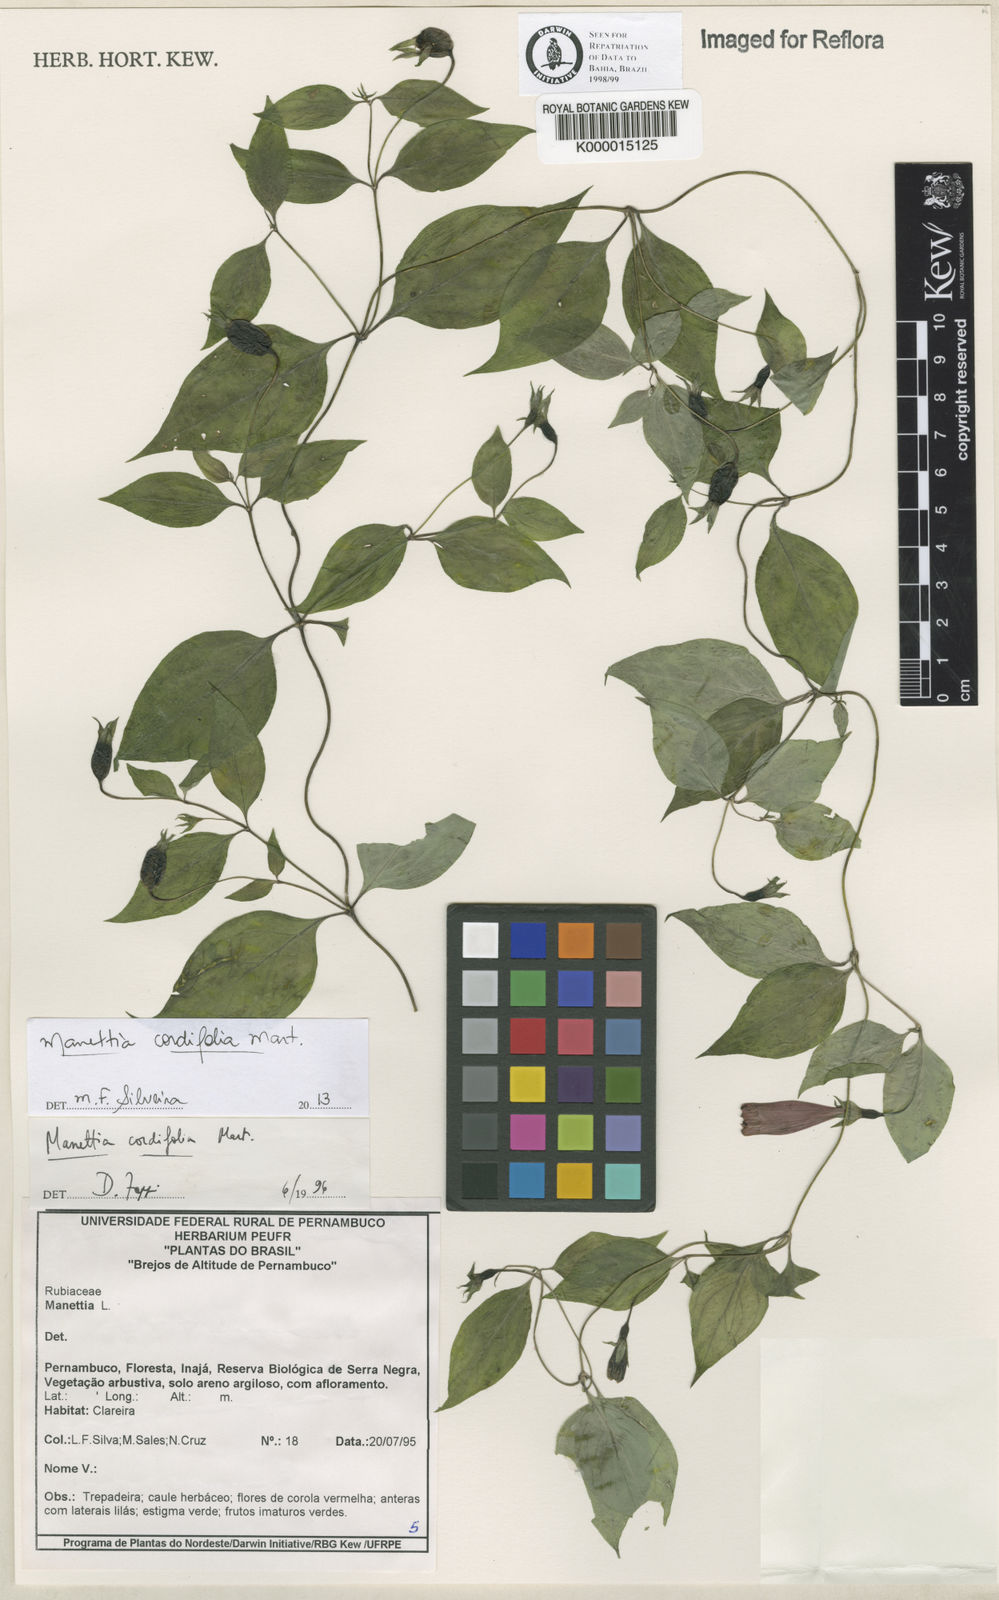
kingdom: Plantae
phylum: Tracheophyta
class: Magnoliopsida
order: Gentianales
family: Rubiaceae
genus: Manettia
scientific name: Manettia cordifolia
